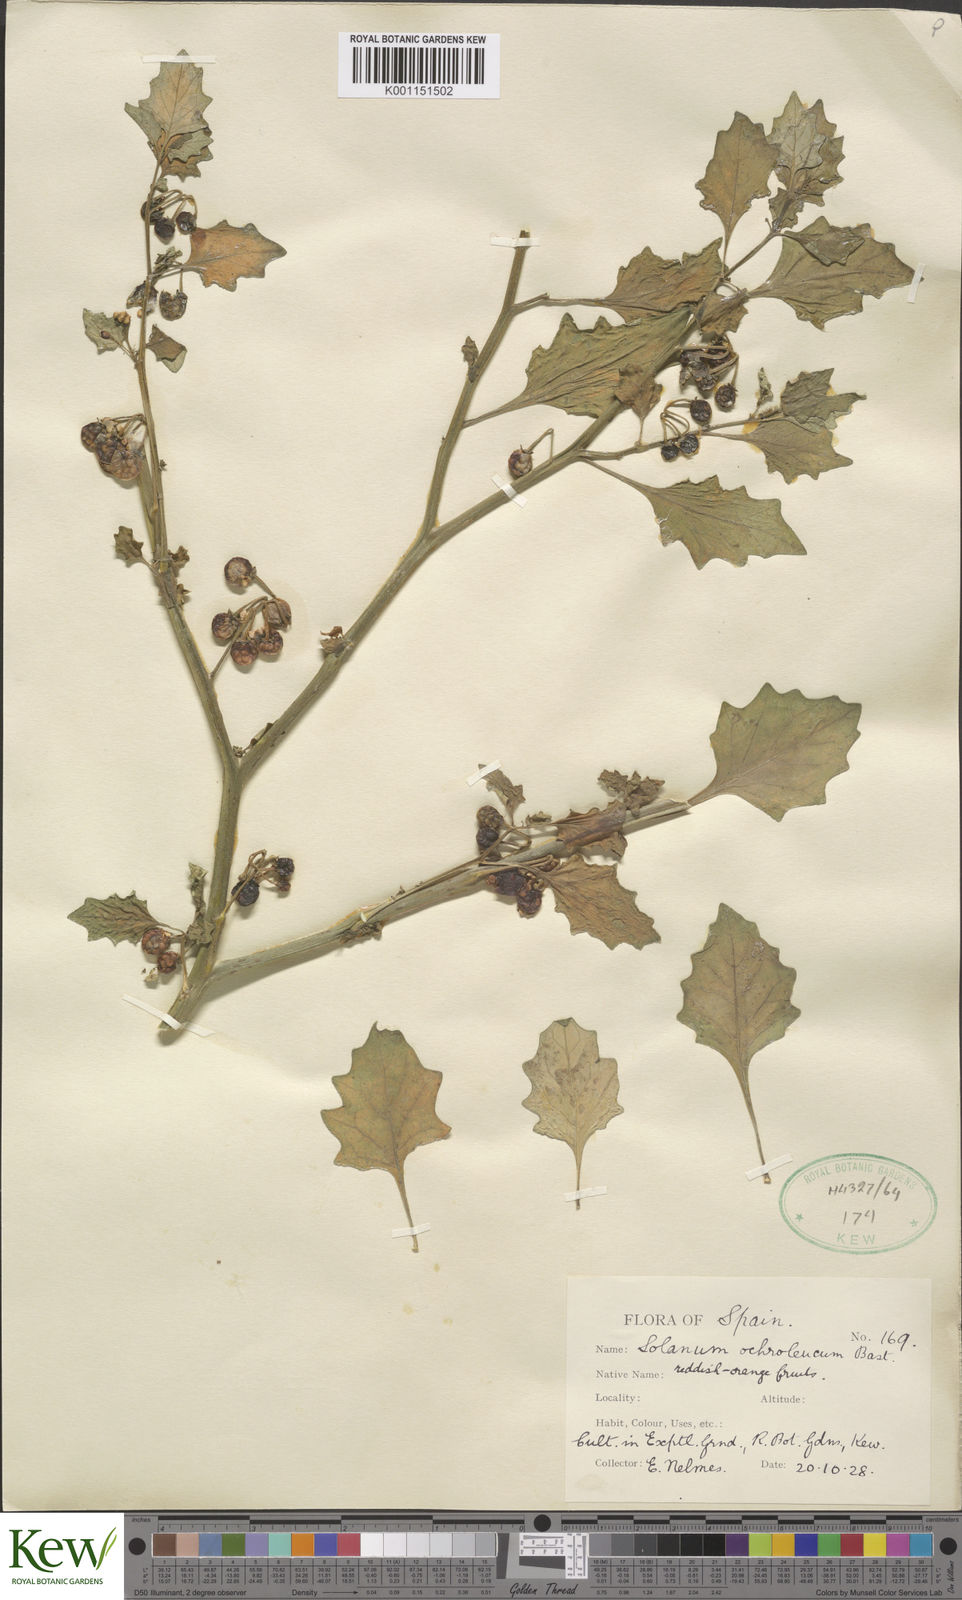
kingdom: Plantae
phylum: Tracheophyta
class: Magnoliopsida
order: Solanales
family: Solanaceae
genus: Solanum
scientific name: Solanum villosum
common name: Red nightshade
